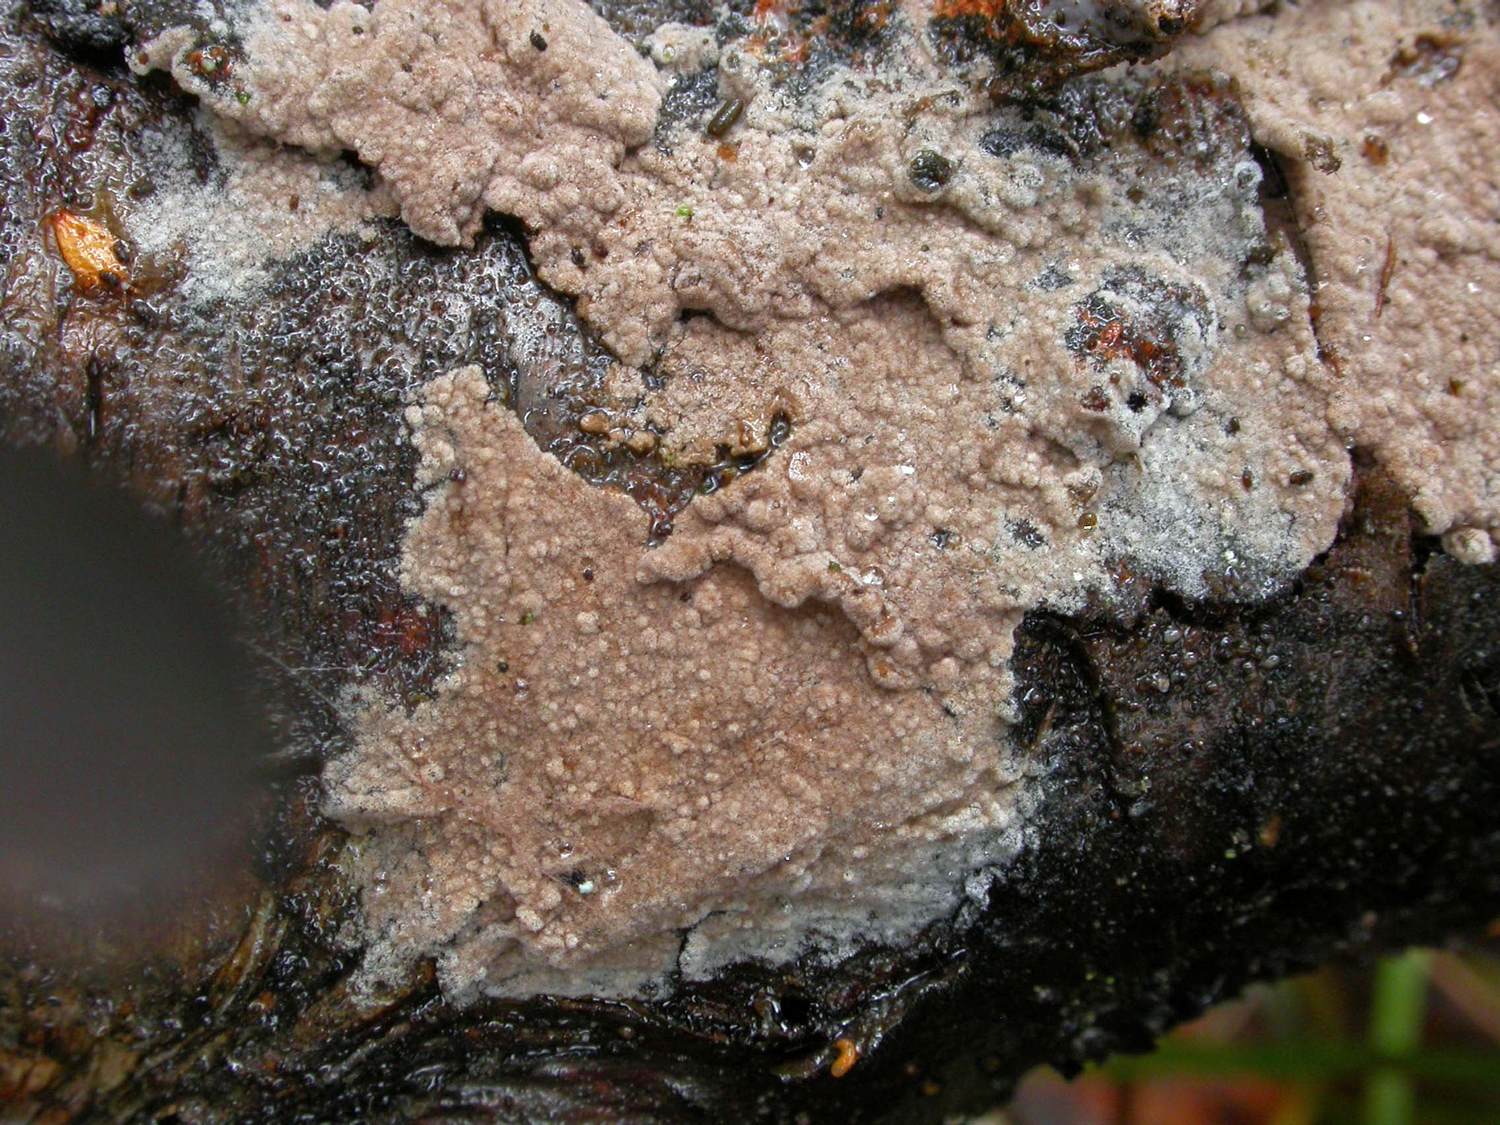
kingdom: Fungi
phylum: Basidiomycota
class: Agaricomycetes
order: Thelephorales
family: Thelephoraceae
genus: Thelephora
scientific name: Thelephora terrestris
